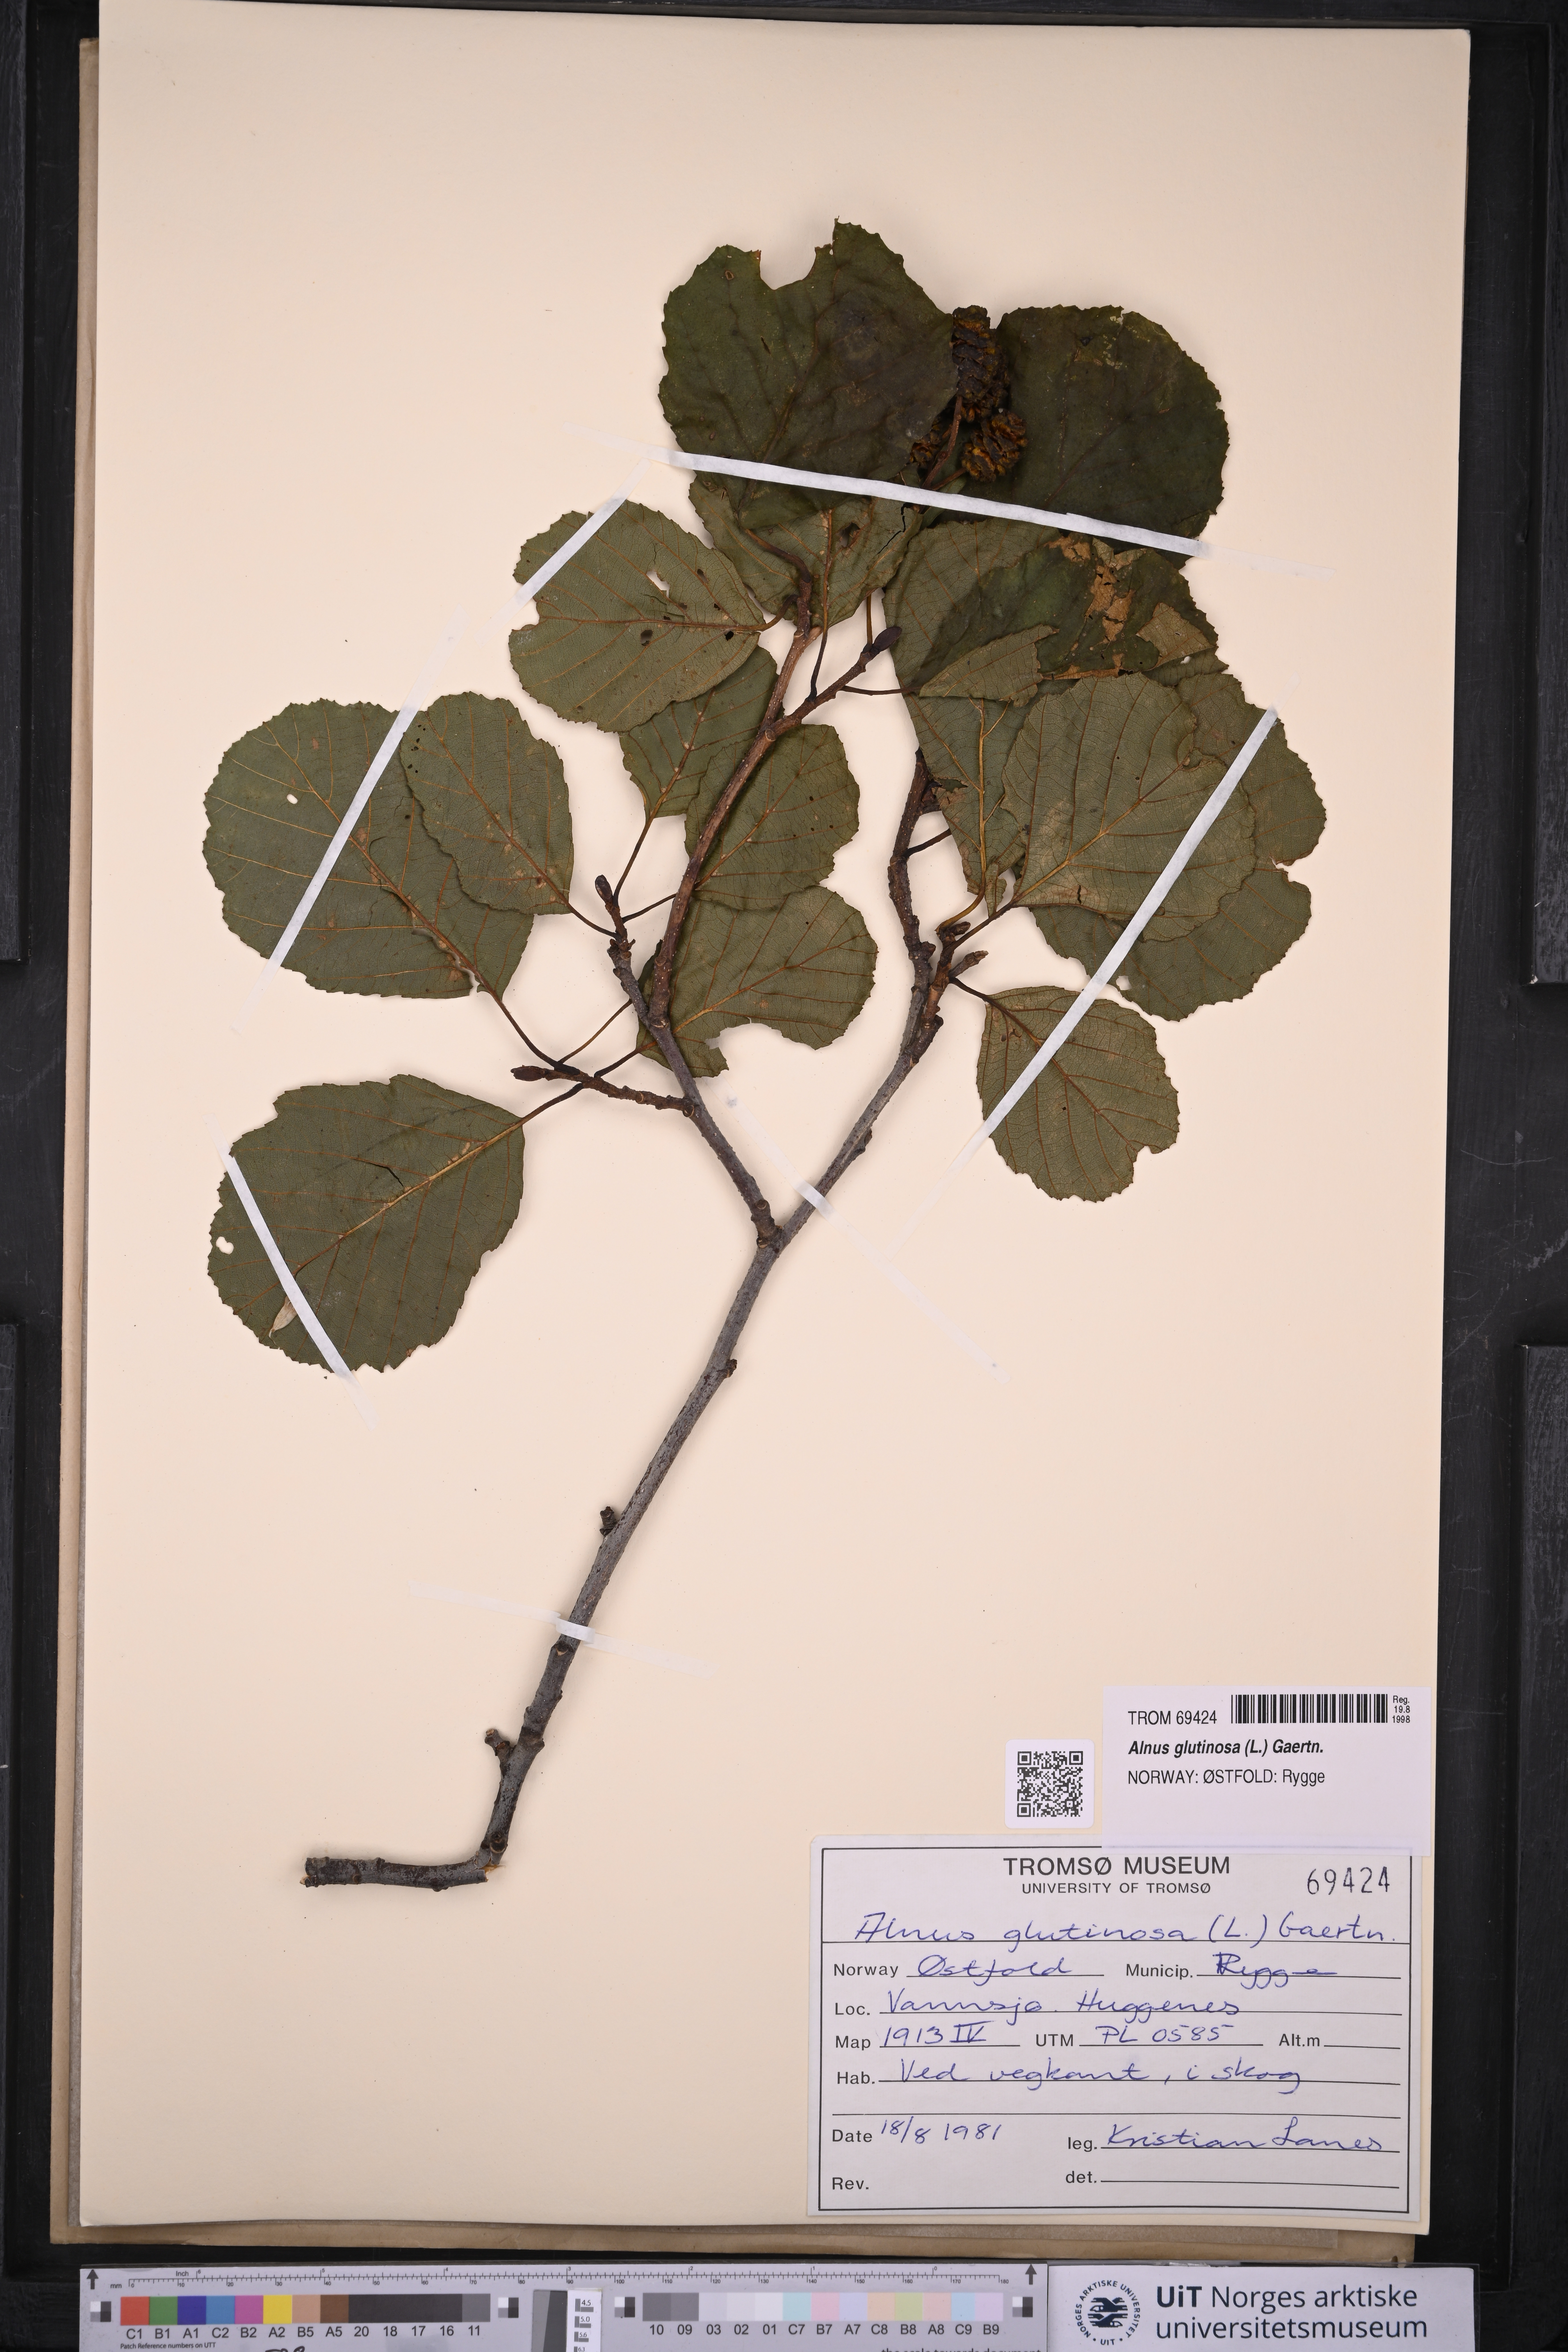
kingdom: Plantae
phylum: Tracheophyta
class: Magnoliopsida
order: Fagales
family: Betulaceae
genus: Alnus
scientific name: Alnus glutinosa
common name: Black alder
